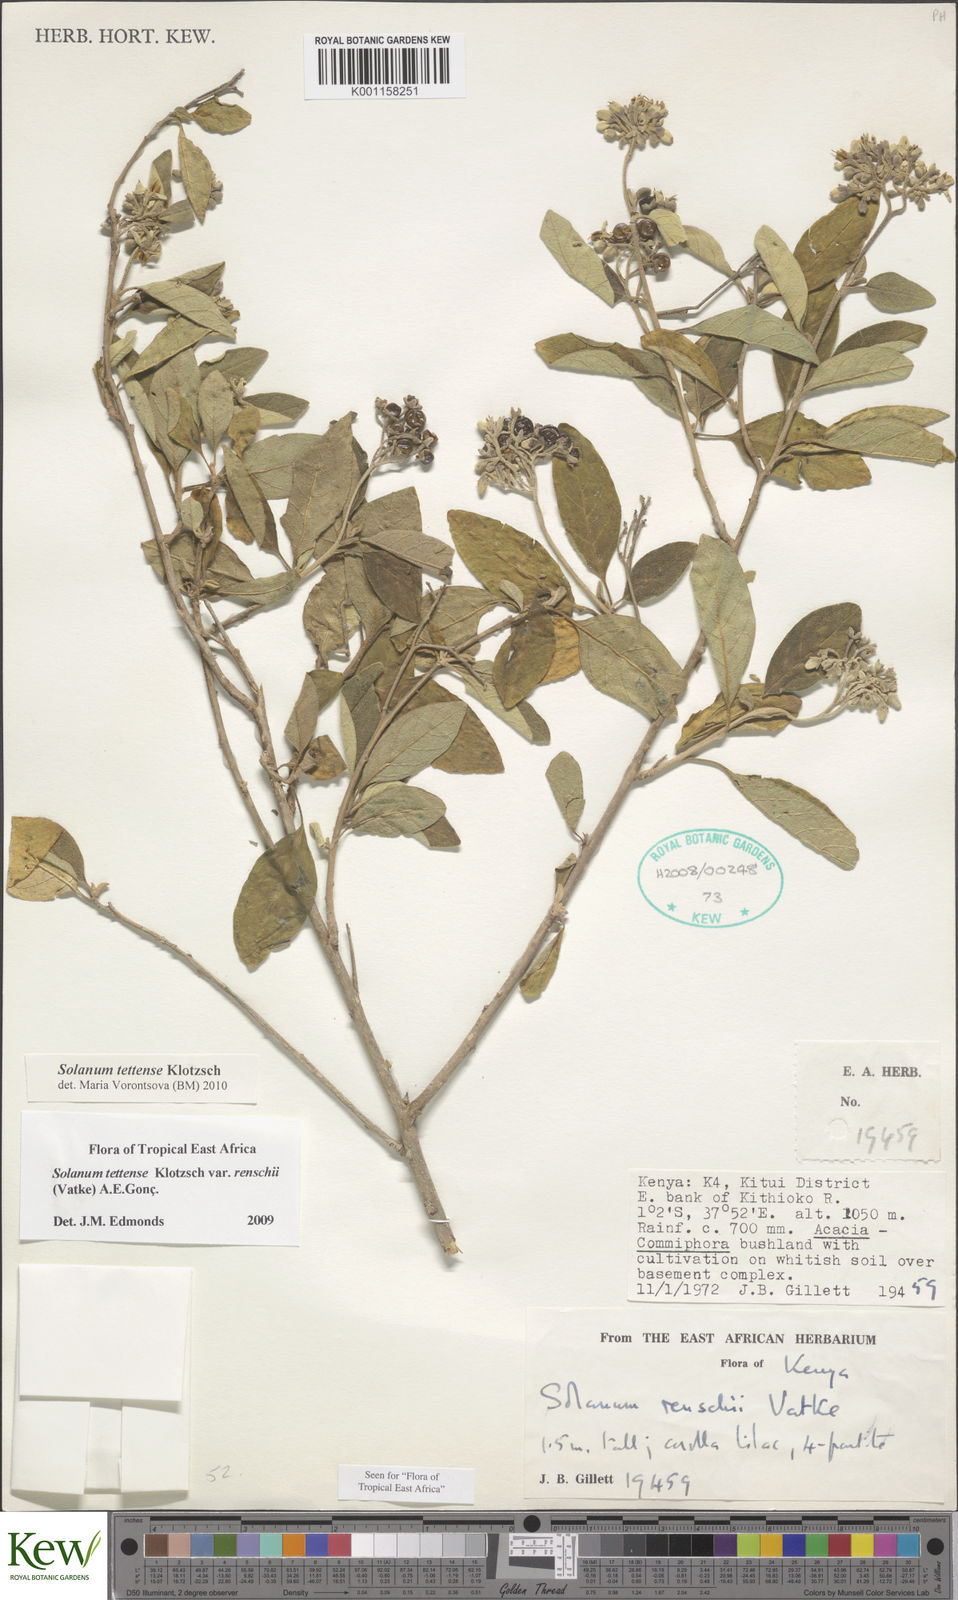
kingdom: Plantae
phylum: Tracheophyta
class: Magnoliopsida
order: Solanales
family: Solanaceae
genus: Solanum
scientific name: Solanum tettense
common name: Mozambique bitter apple
